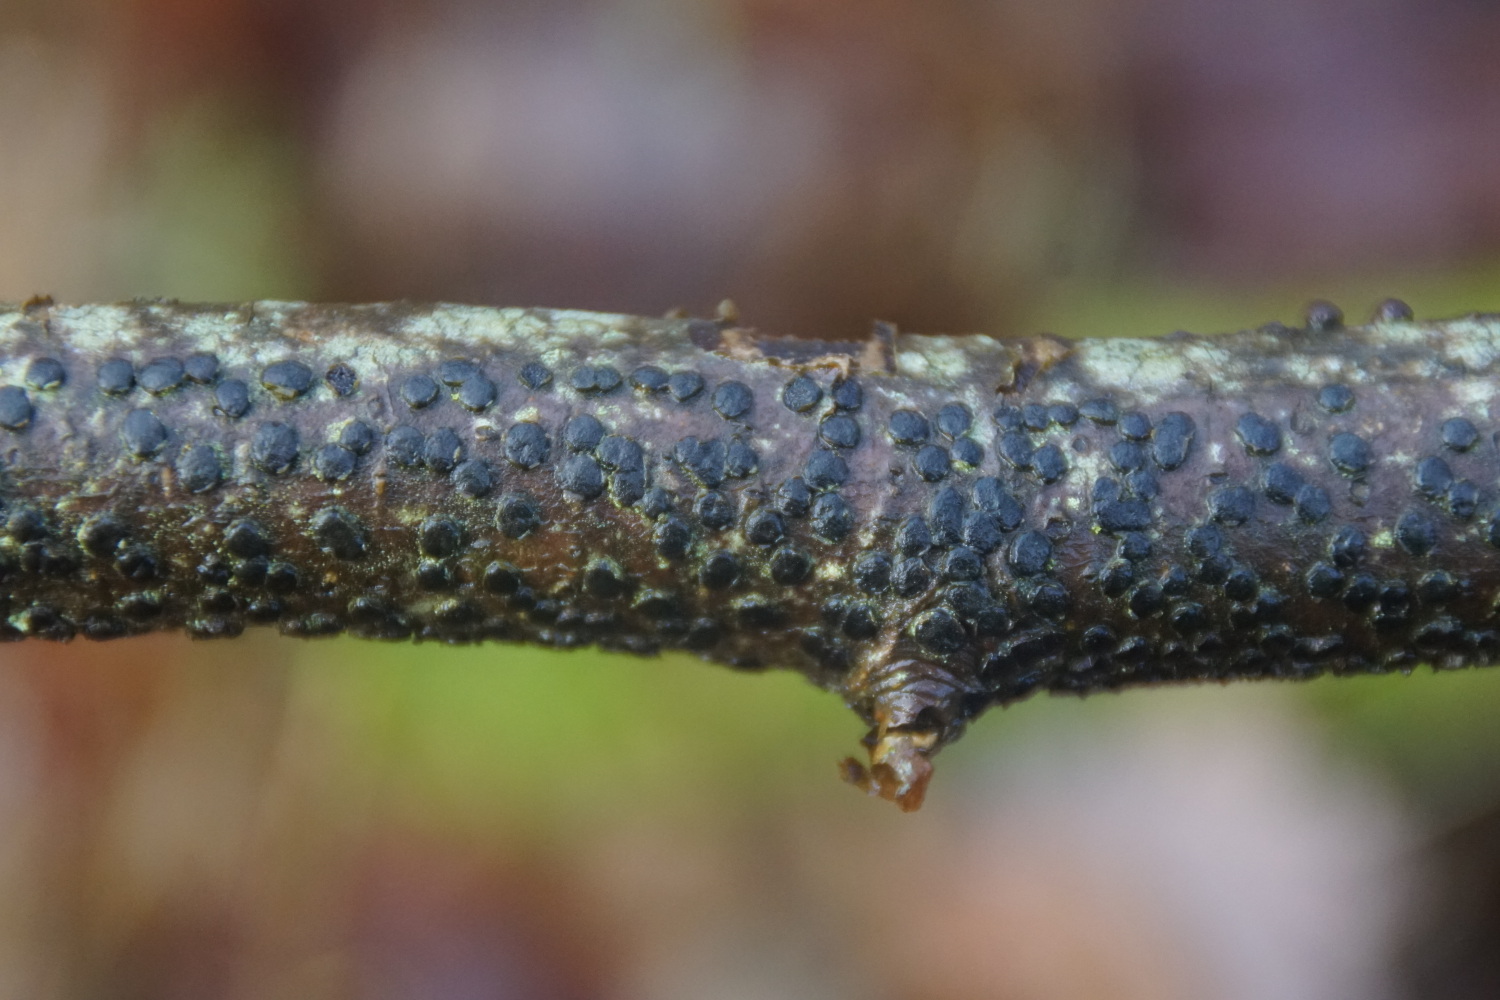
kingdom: Fungi
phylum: Ascomycota
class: Sordariomycetes
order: Xylariales
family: Diatrypaceae
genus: Diatrype
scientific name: Diatrype disciformis
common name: kant-kulskorpe
